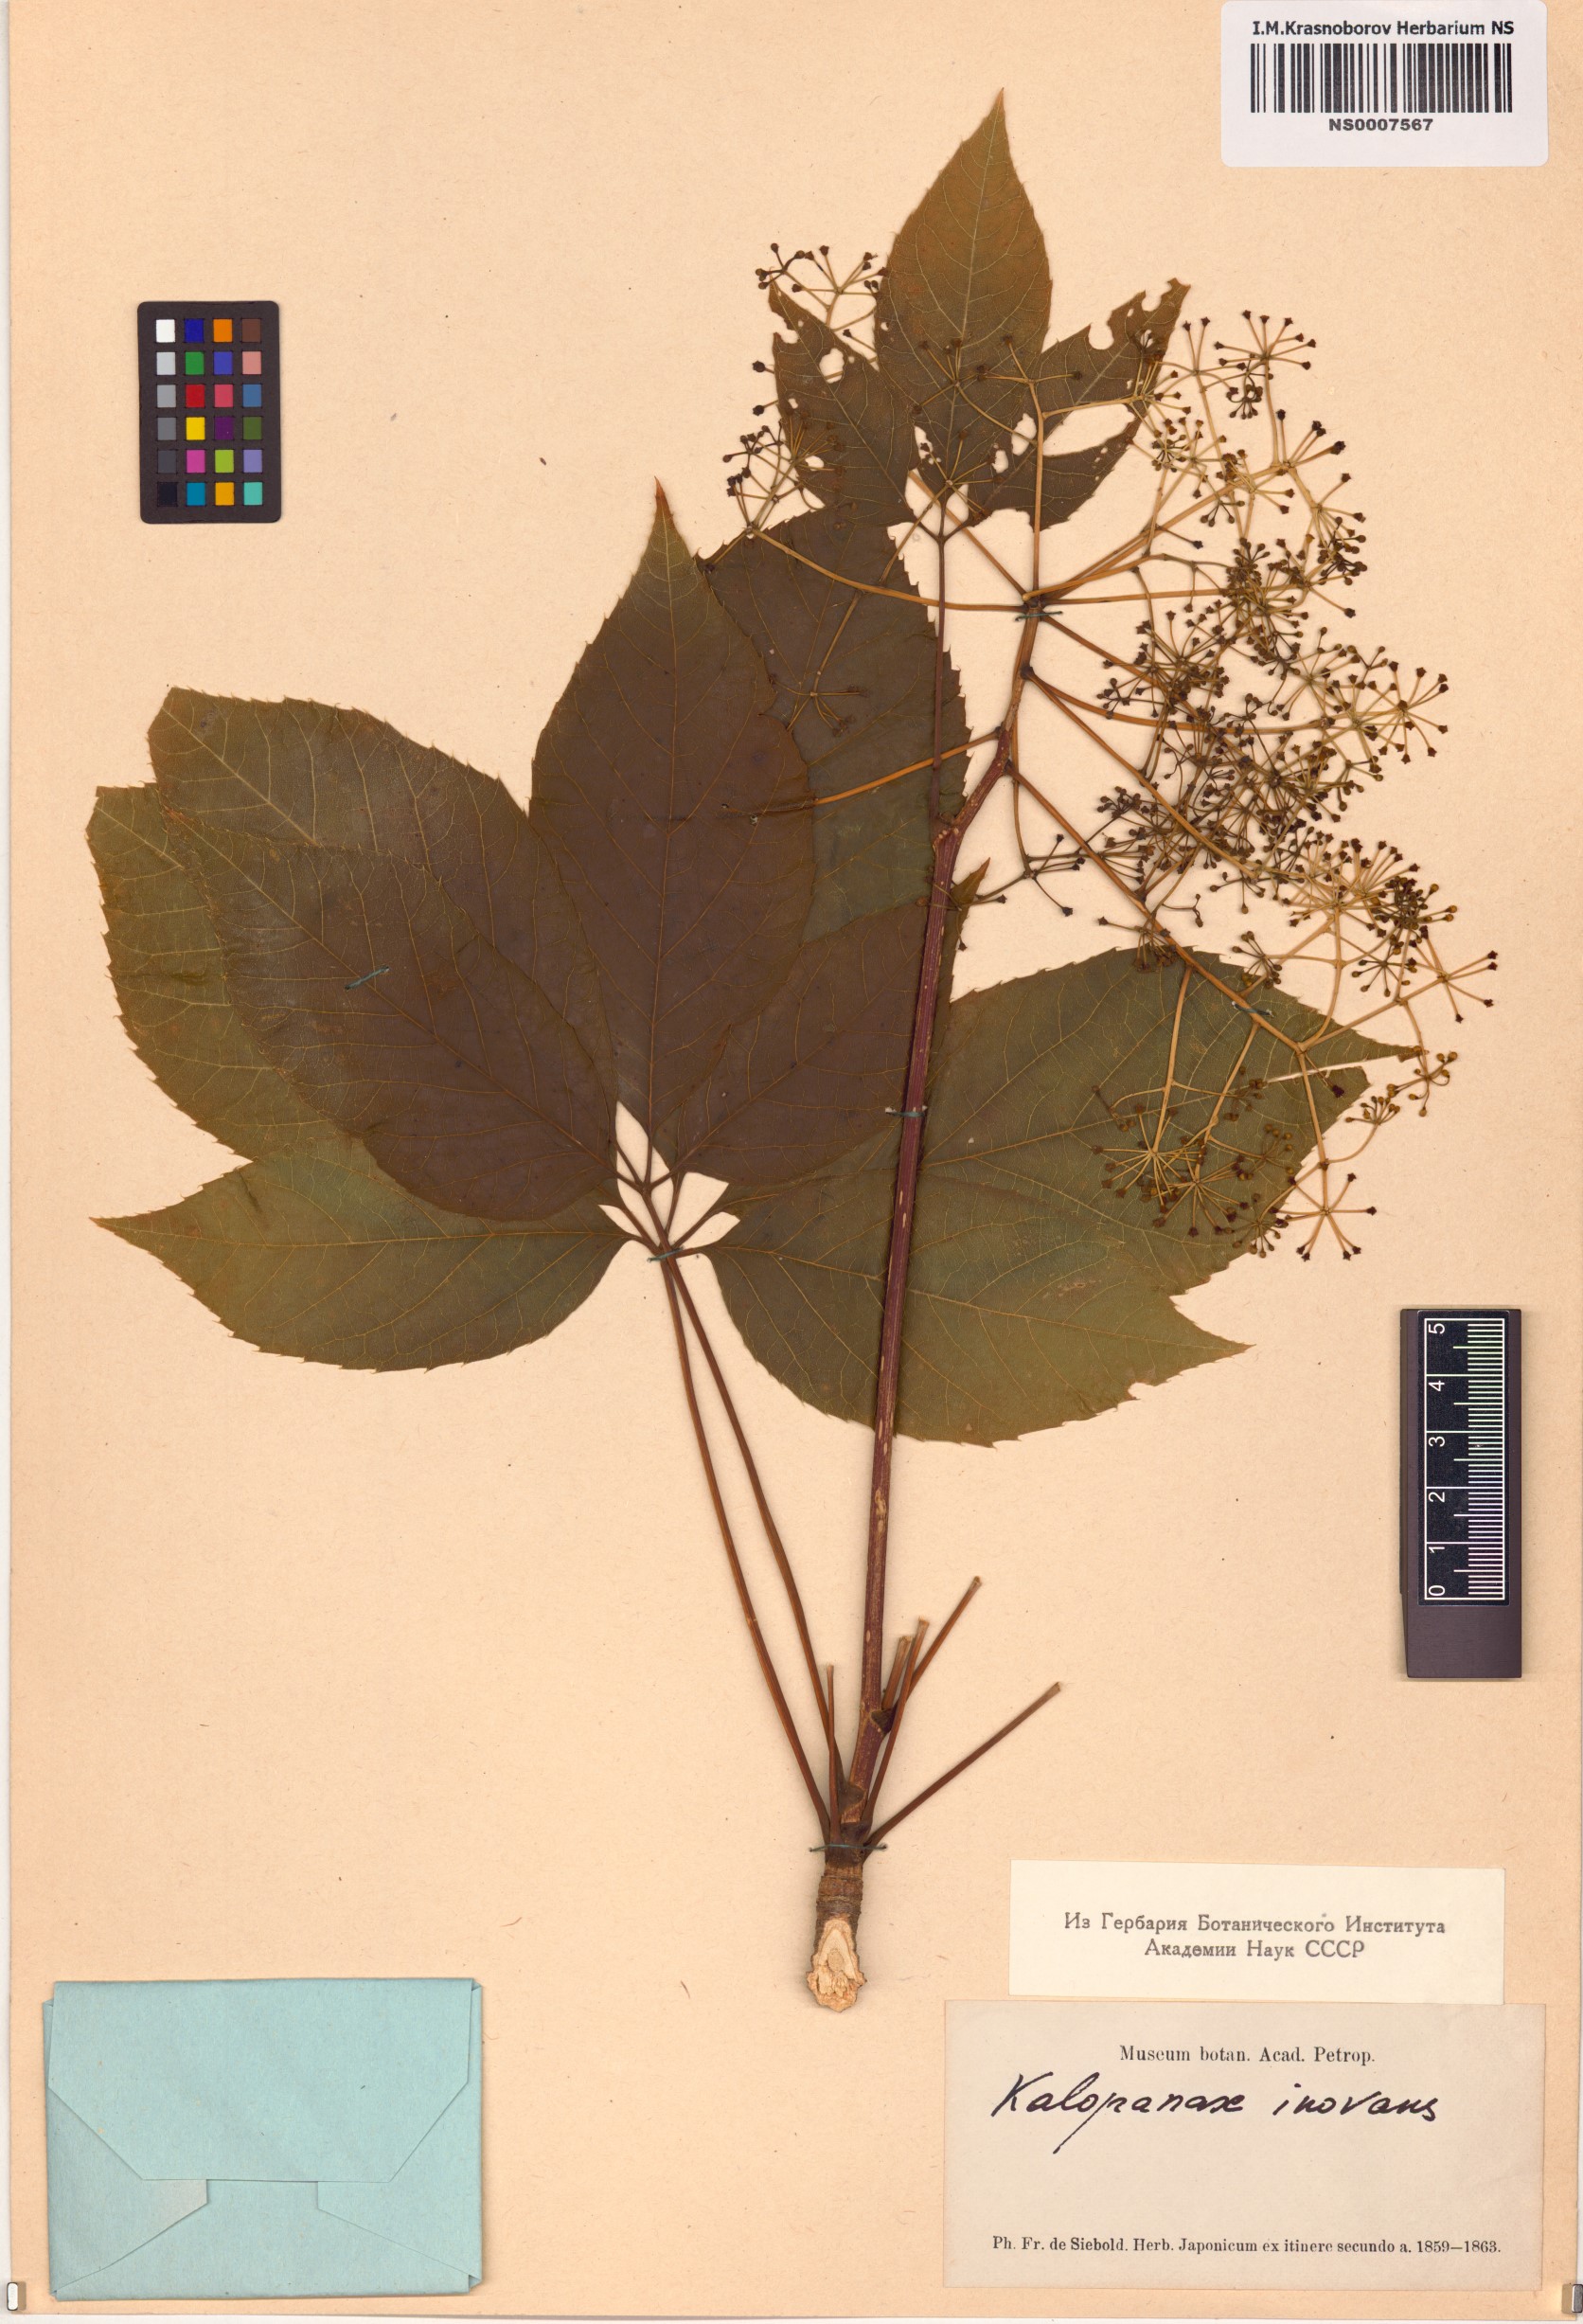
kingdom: Plantae
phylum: Tracheophyta
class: Magnoliopsida
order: Apiales
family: Araliaceae
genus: Gamblea
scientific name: Gamblea innovans
